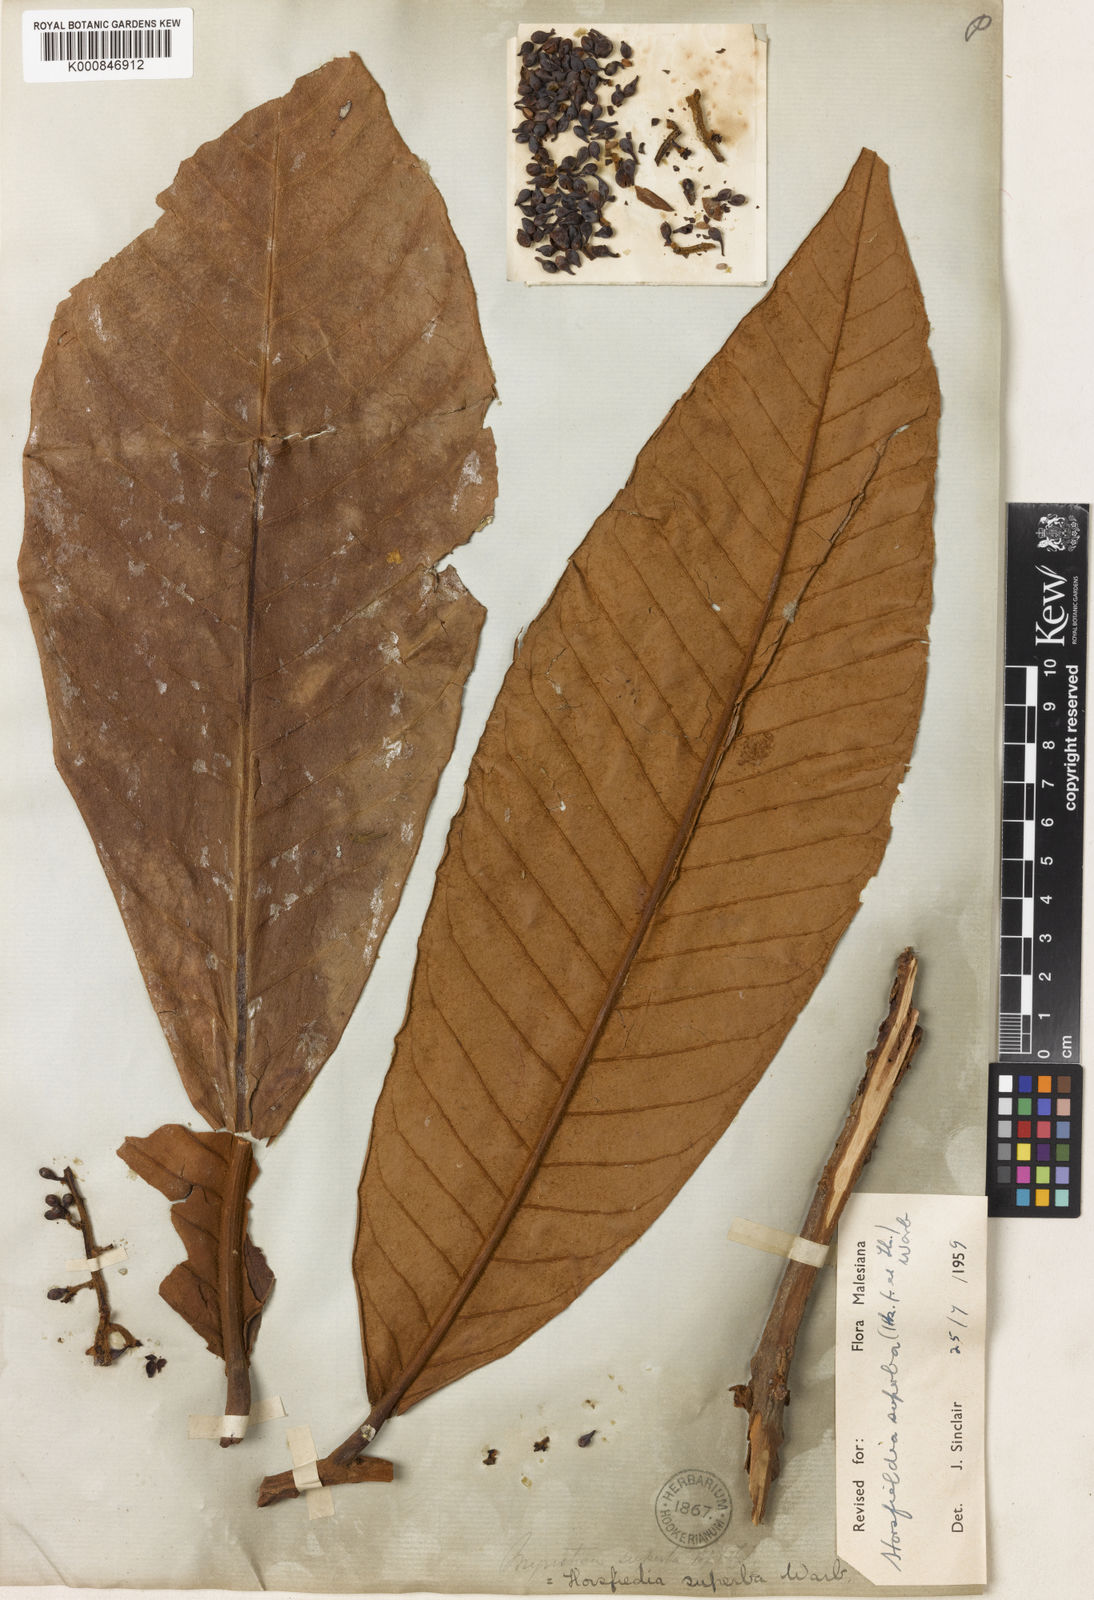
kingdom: Plantae
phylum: Tracheophyta
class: Magnoliopsida
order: Magnoliales
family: Myristicaceae
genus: Horsfieldia
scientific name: Horsfieldia superba
